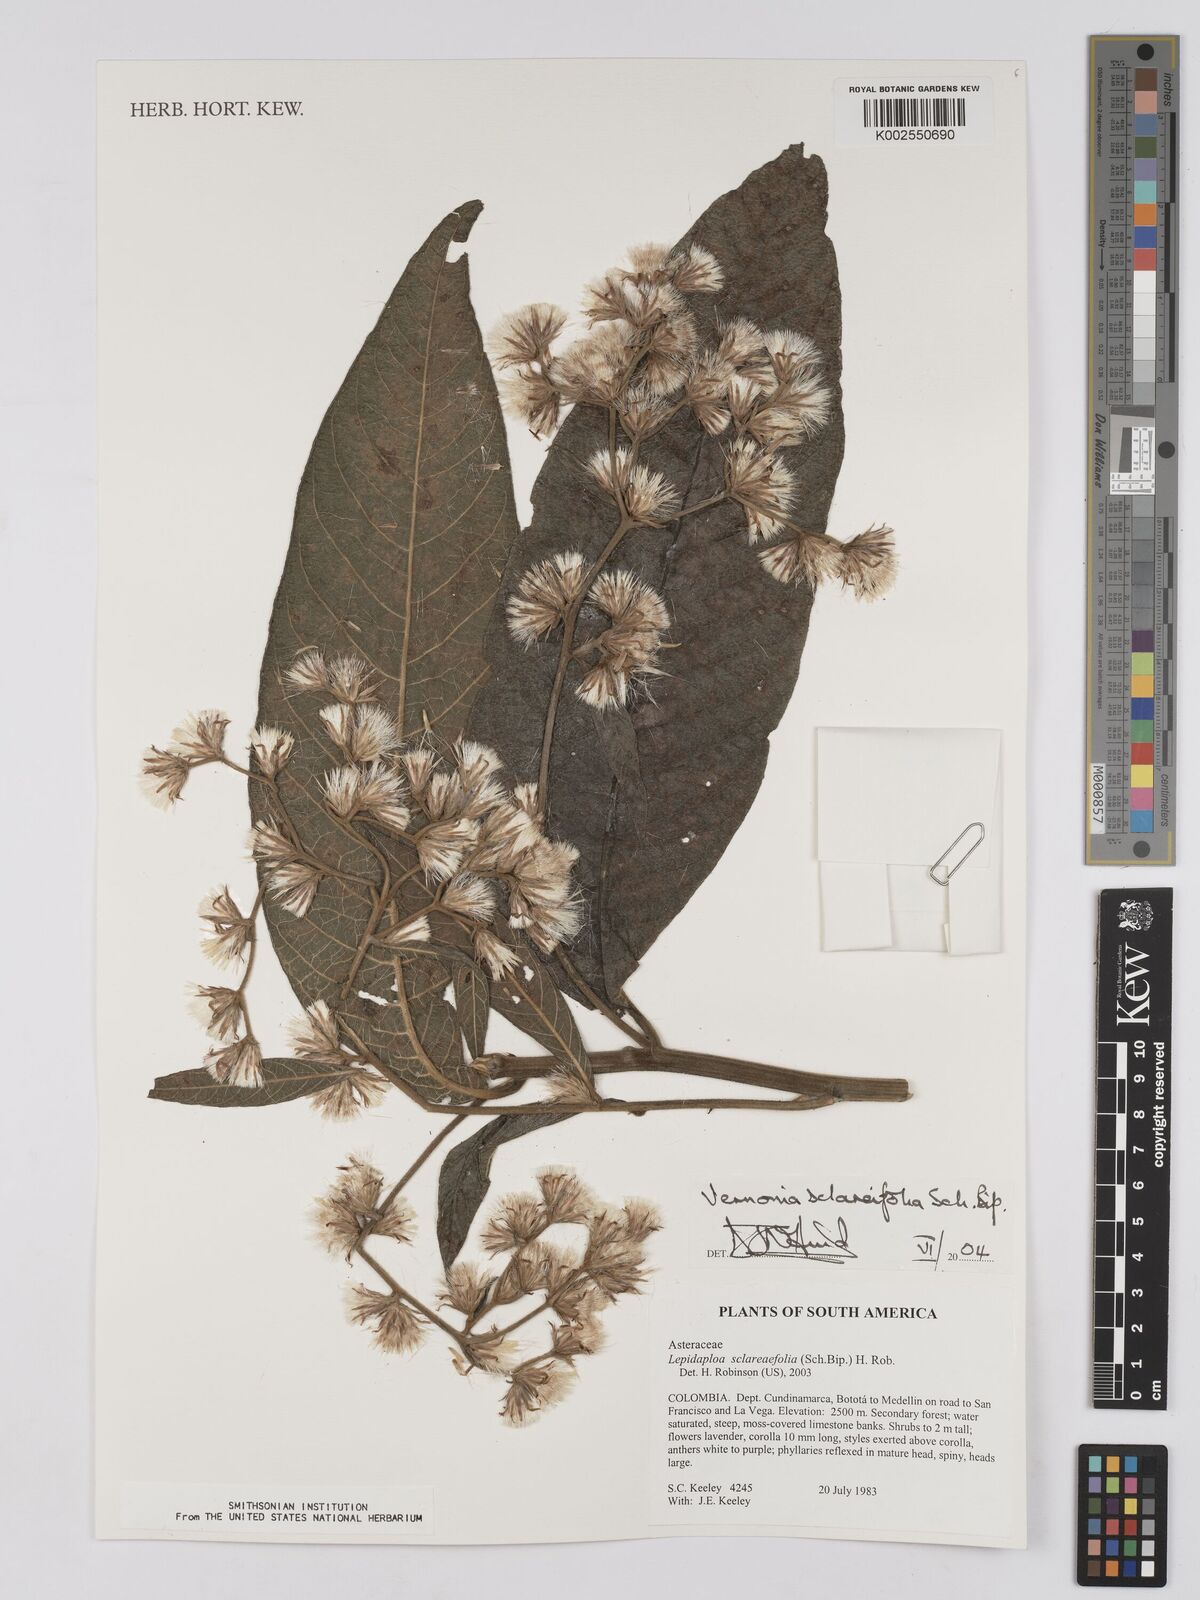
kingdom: Plantae
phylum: Tracheophyta
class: Magnoliopsida
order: Asterales
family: Asteraceae
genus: Lepidaploa
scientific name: Lepidaploa sclareifolia
